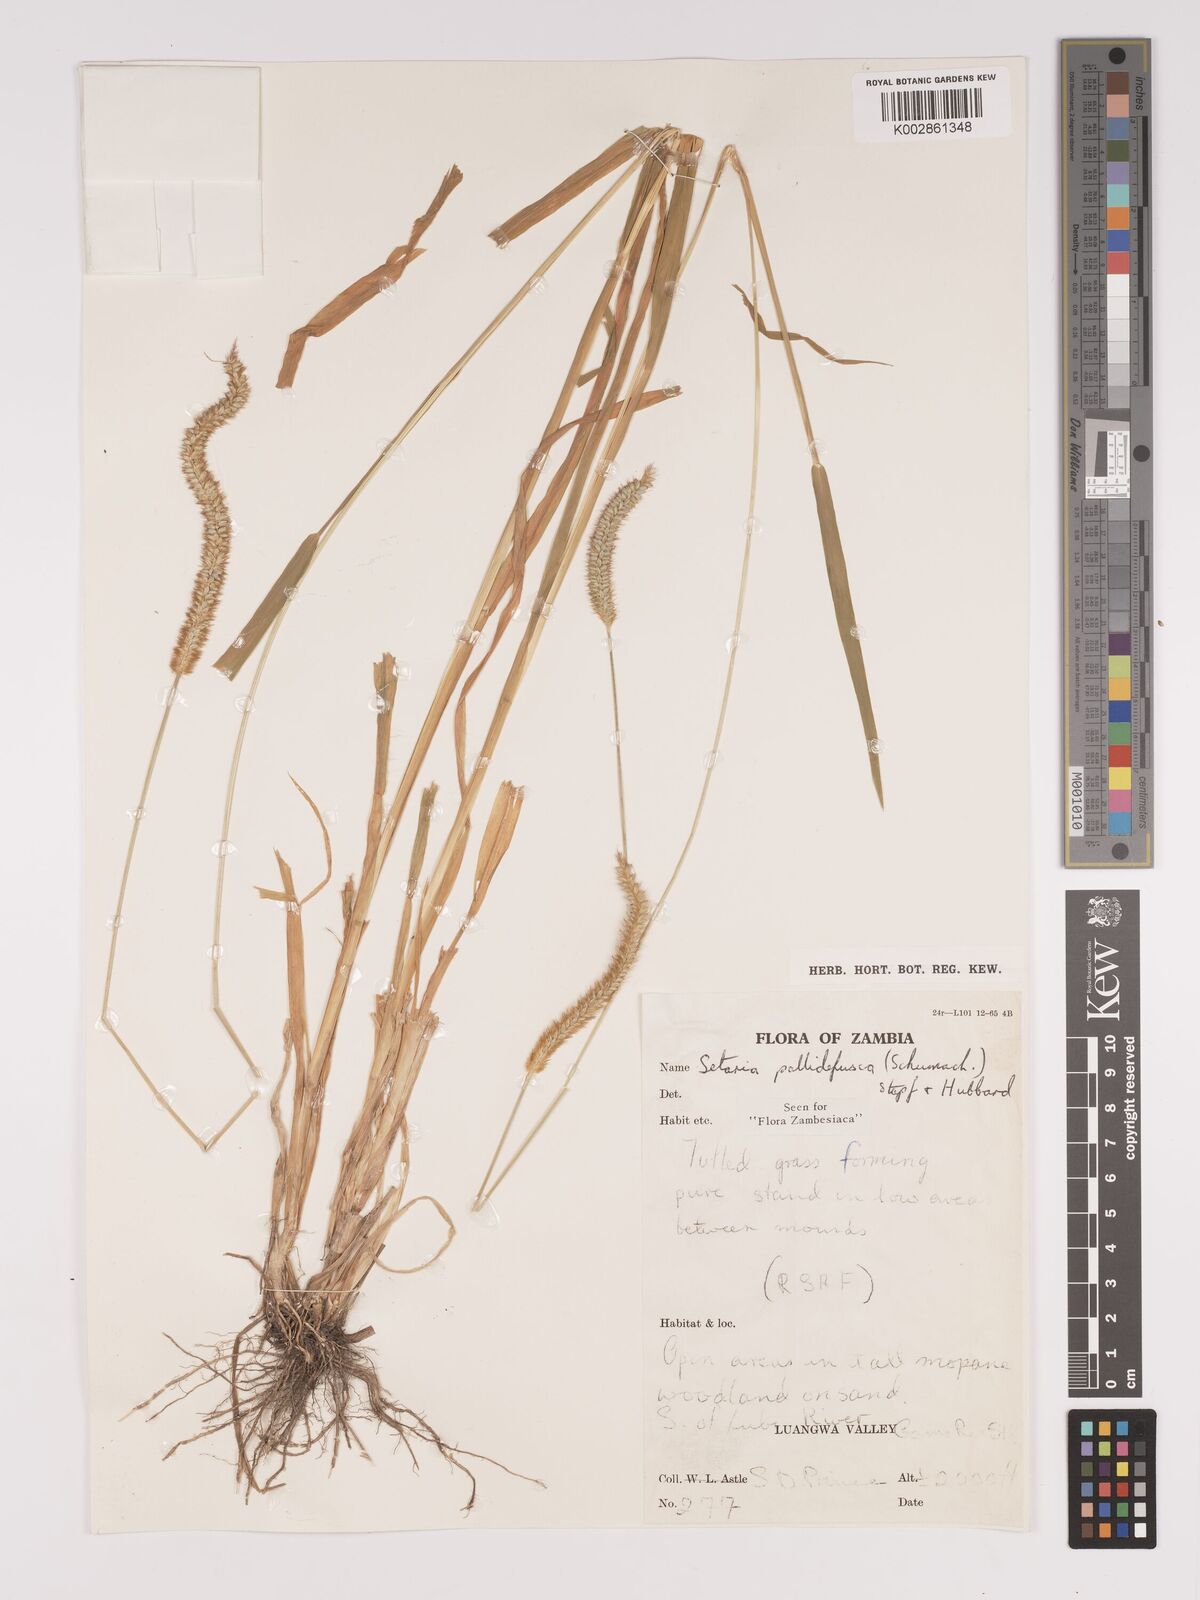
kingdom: Plantae
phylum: Tracheophyta
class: Liliopsida
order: Poales
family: Poaceae
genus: Setaria
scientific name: Setaria pumila
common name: Yellow bristle-grass
